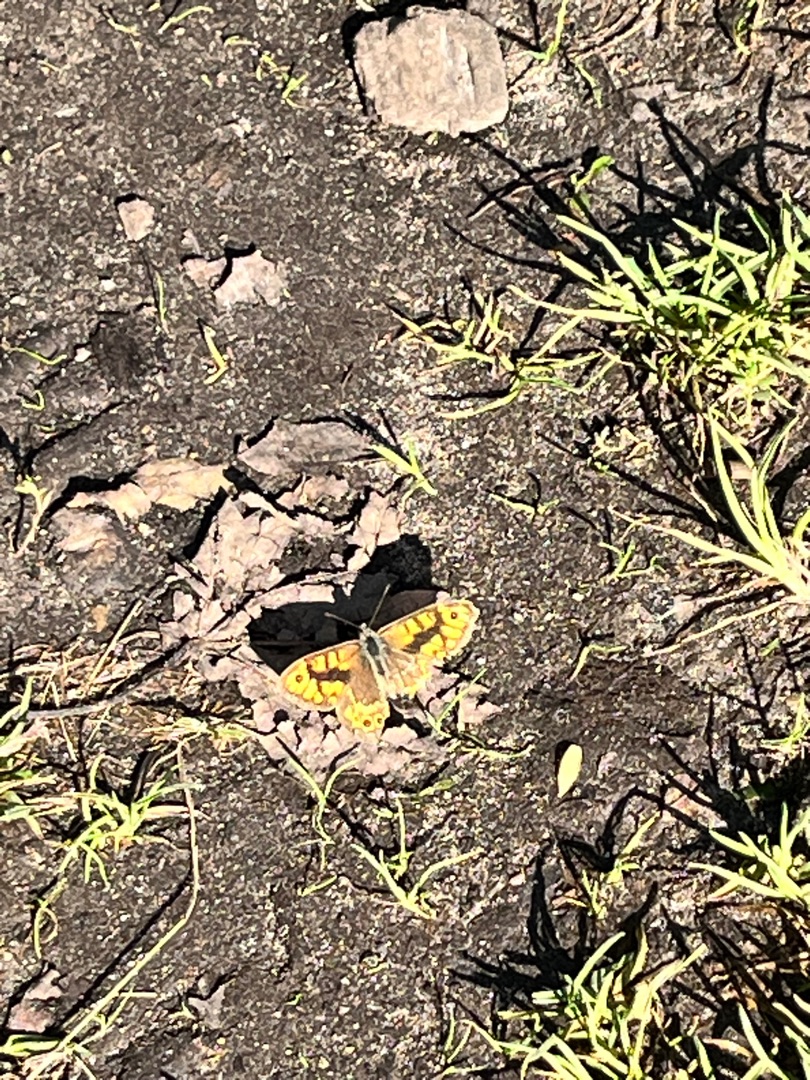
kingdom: Animalia
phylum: Arthropoda
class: Insecta
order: Lepidoptera
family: Nymphalidae
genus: Pararge
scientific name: Pararge Lasiommata megera
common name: Vejrandøje
